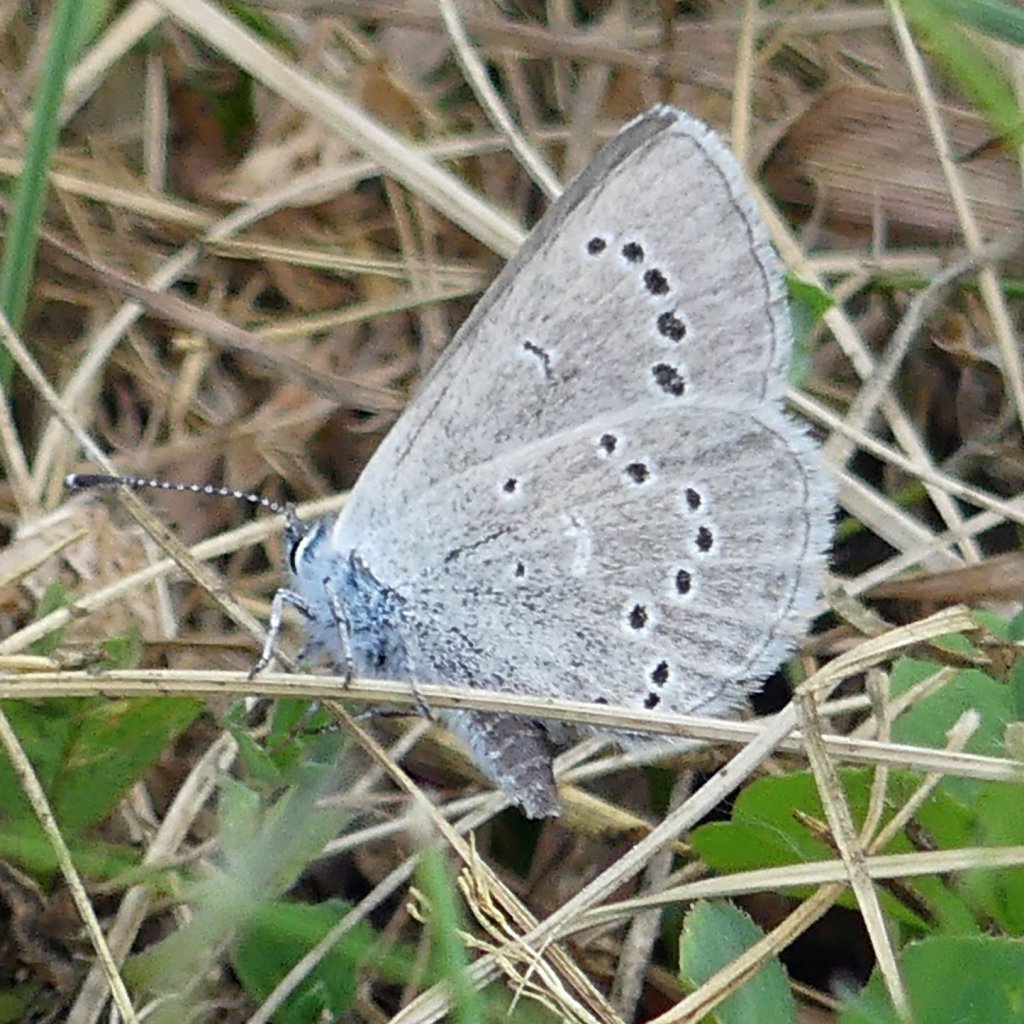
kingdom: Animalia
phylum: Arthropoda
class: Insecta
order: Lepidoptera
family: Lycaenidae
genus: Glaucopsyche
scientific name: Glaucopsyche lygdamus
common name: Silvery Blue
